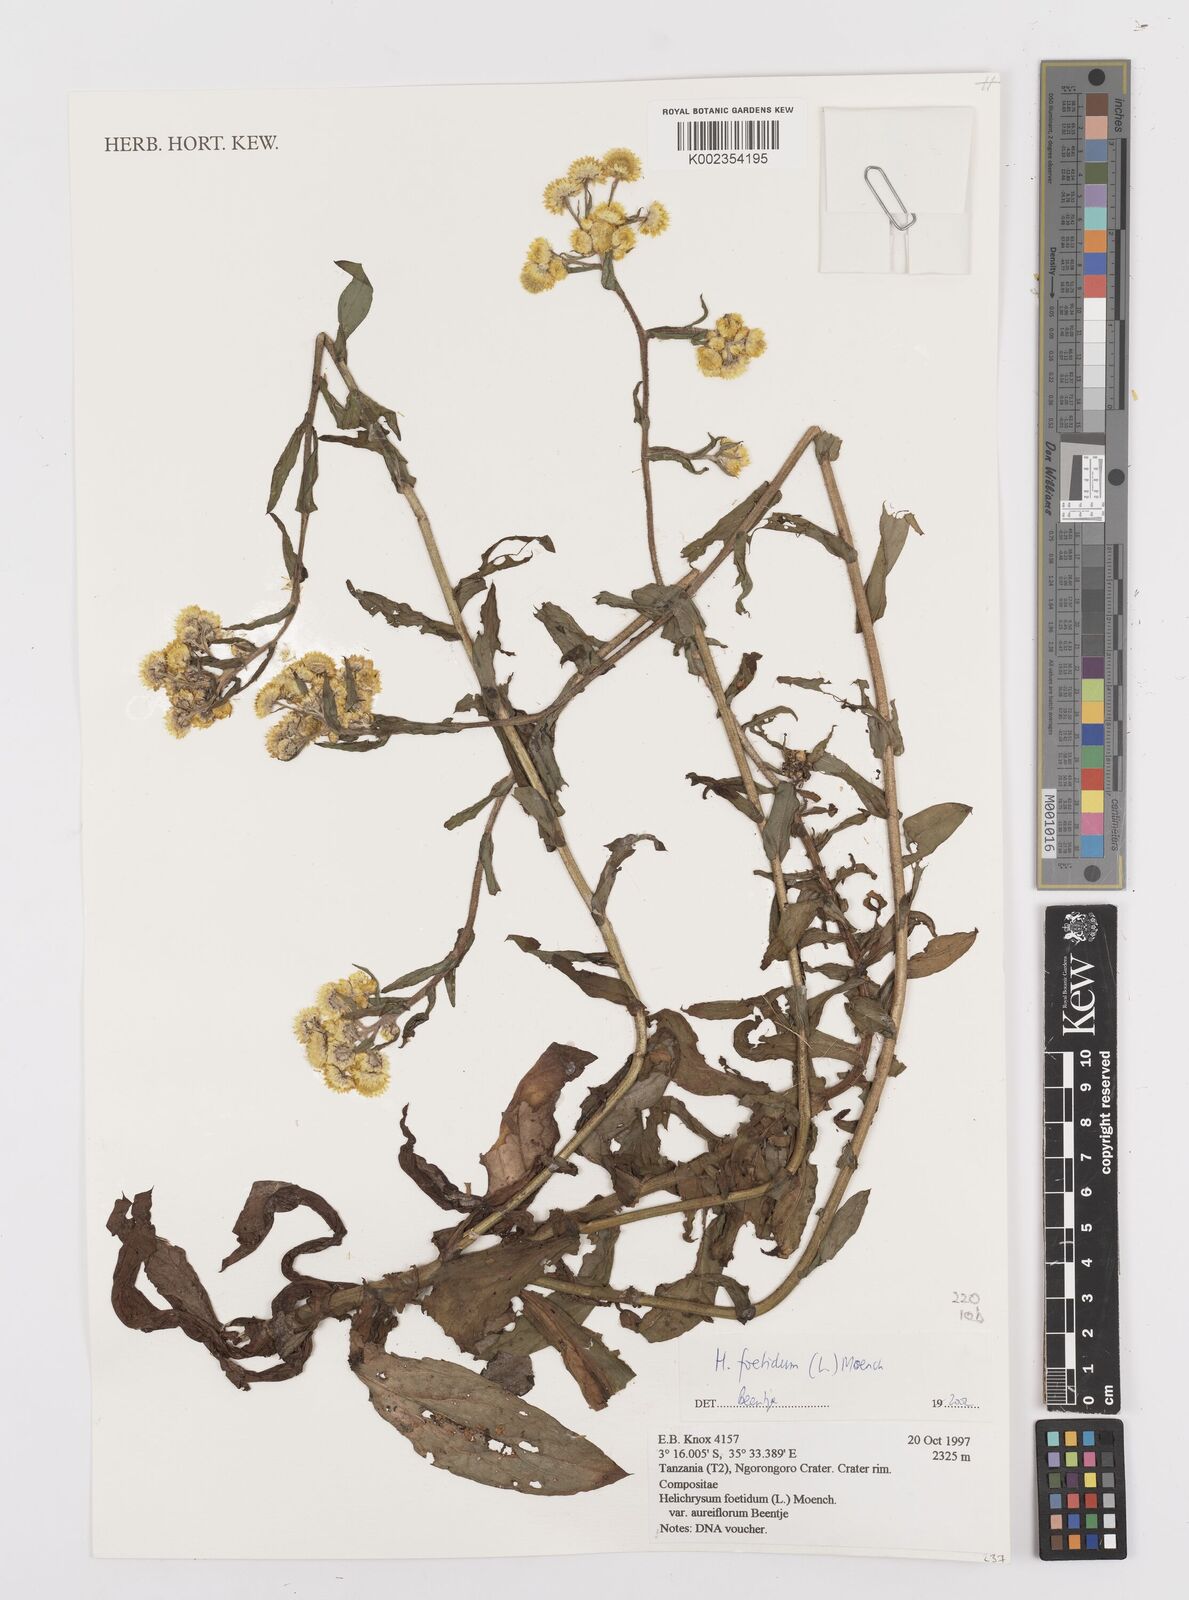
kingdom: Plantae
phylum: Tracheophyta
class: Magnoliopsida
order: Asterales
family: Asteraceae
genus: Helichrysum
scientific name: Helichrysum foetidum
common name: Stinking everlasting
